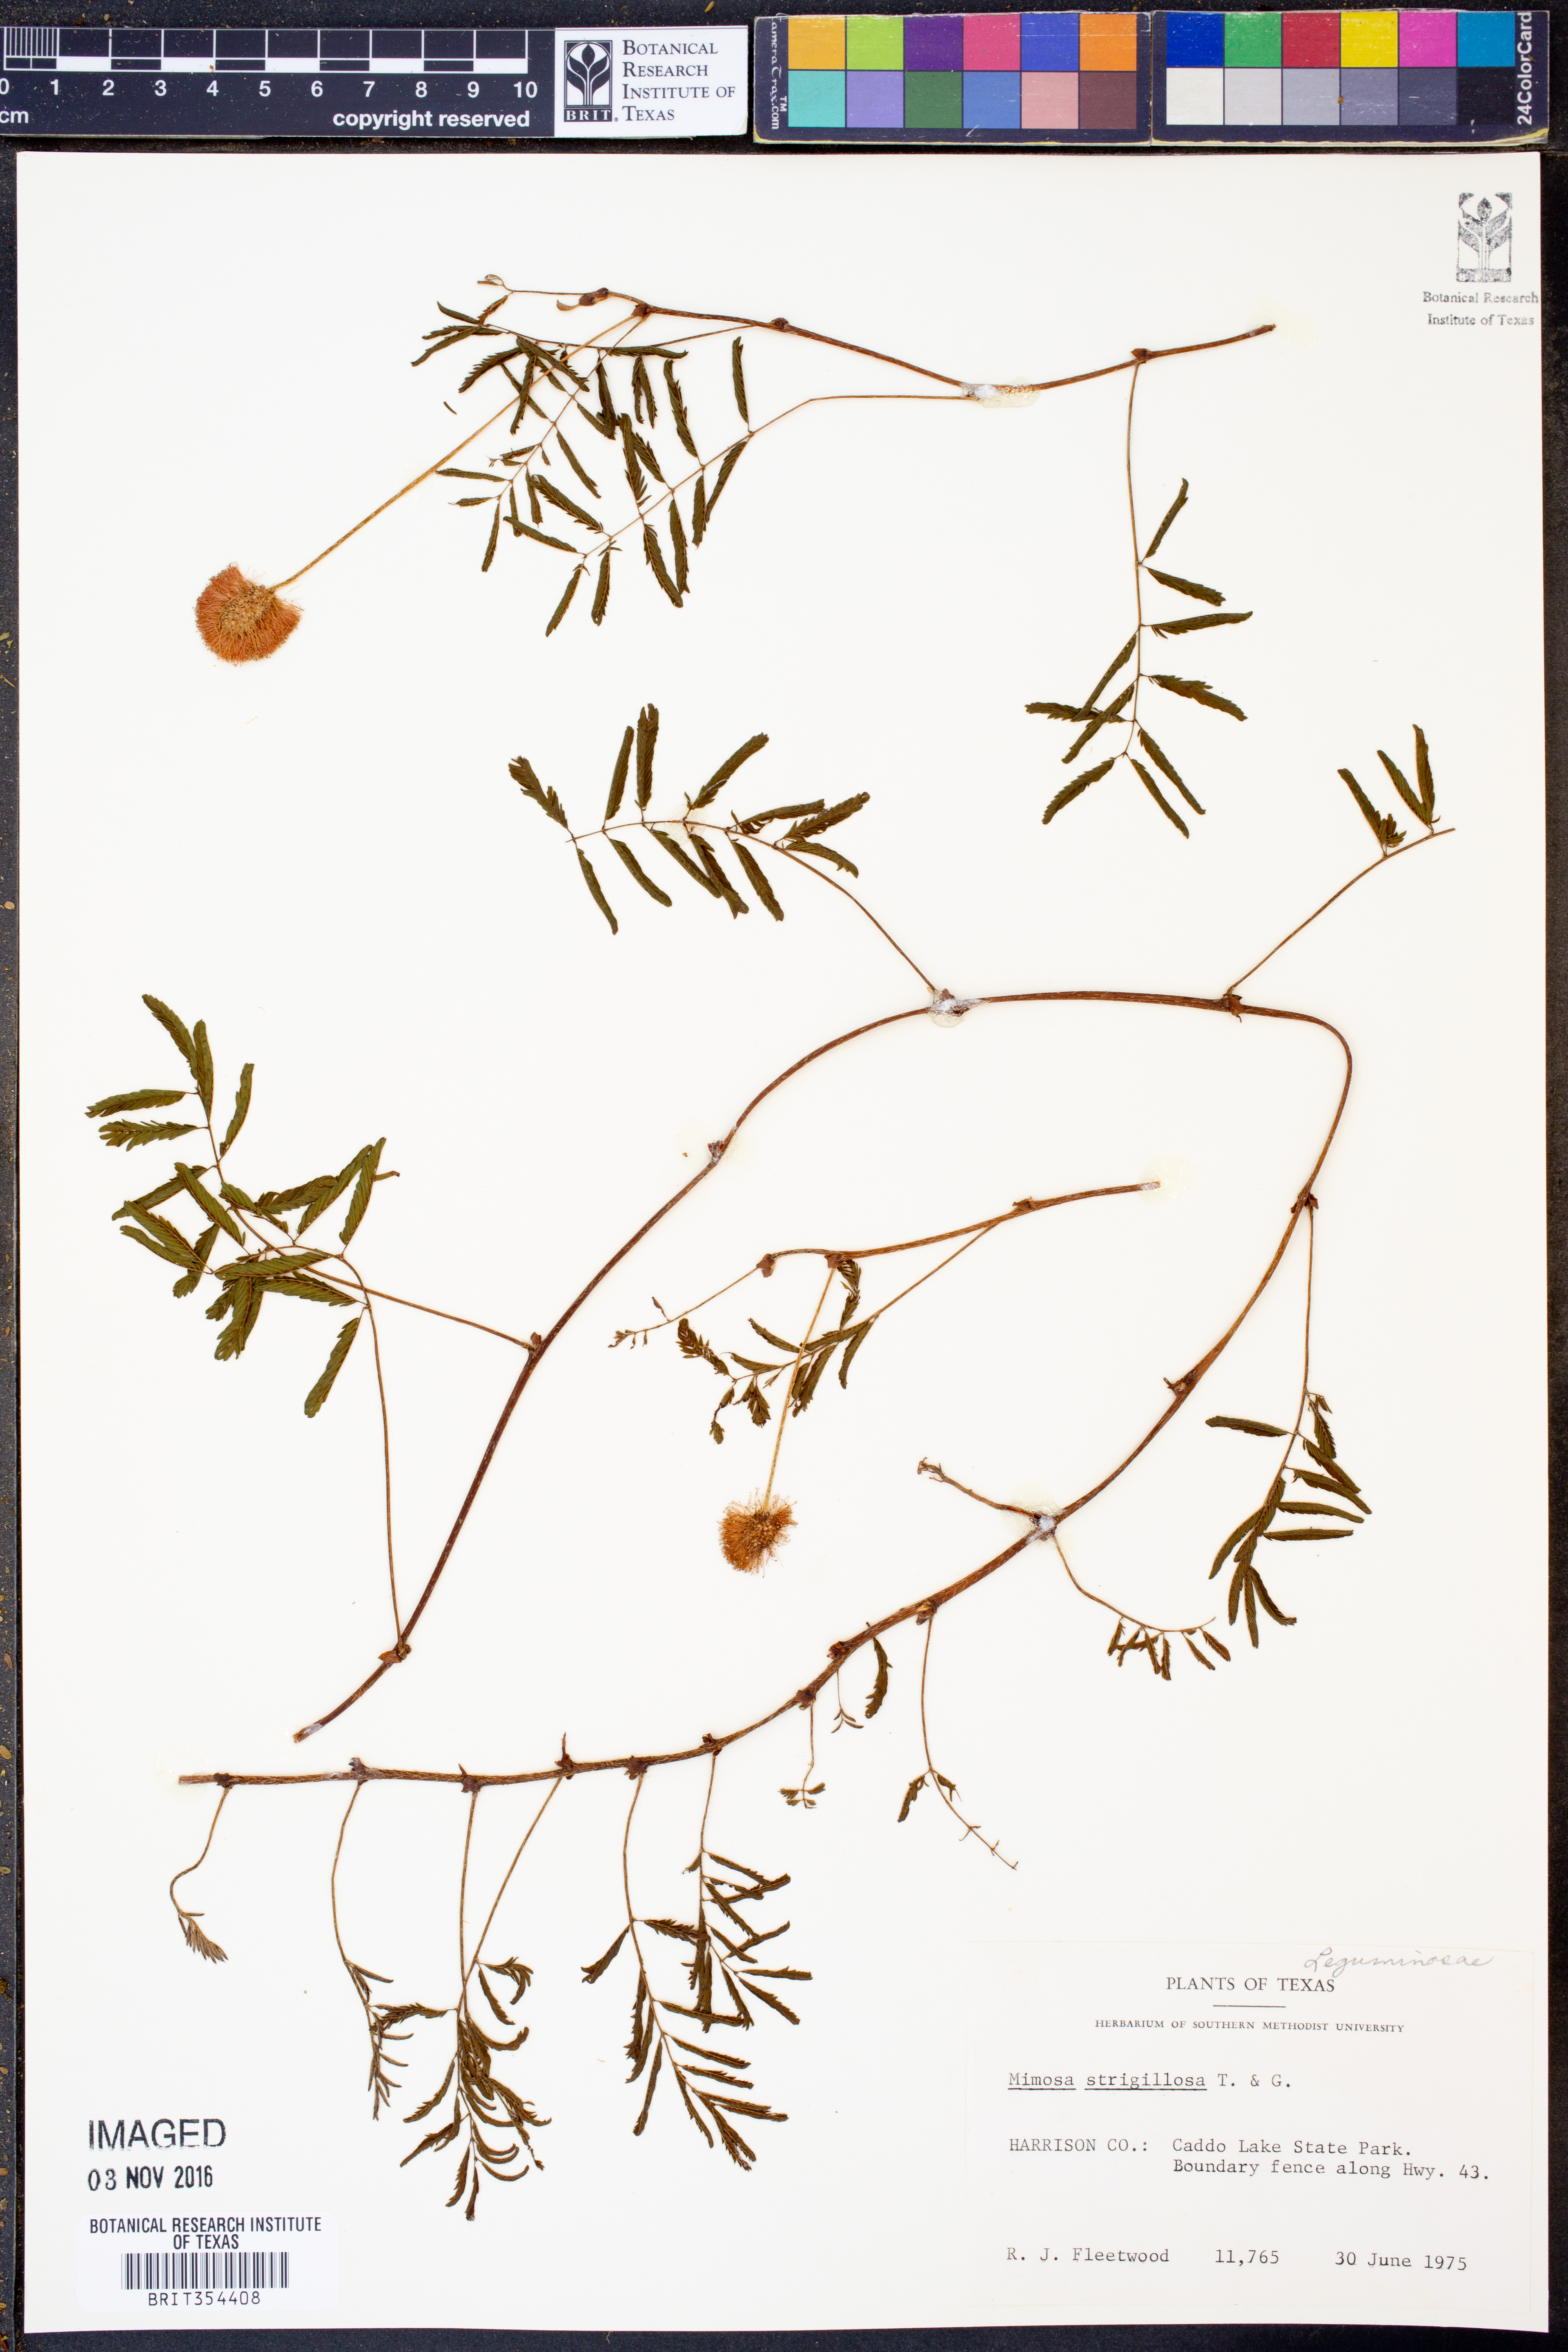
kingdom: Plantae
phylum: Tracheophyta
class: Magnoliopsida
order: Fabales
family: Fabaceae
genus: Mimosa
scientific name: Mimosa strigillosa
